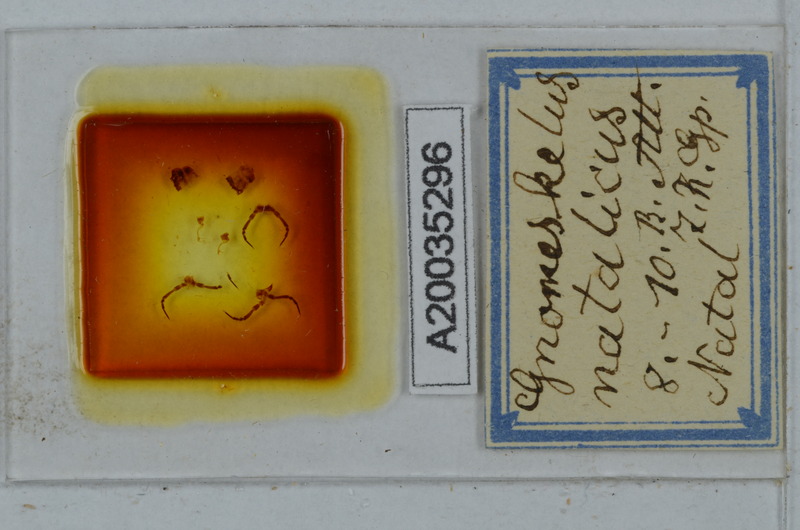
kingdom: Animalia
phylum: Arthropoda
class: Diplopoda
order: Polydesmida
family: Dalodesmidae
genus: Gnomeskelus
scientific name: Gnomeskelus natalicus
